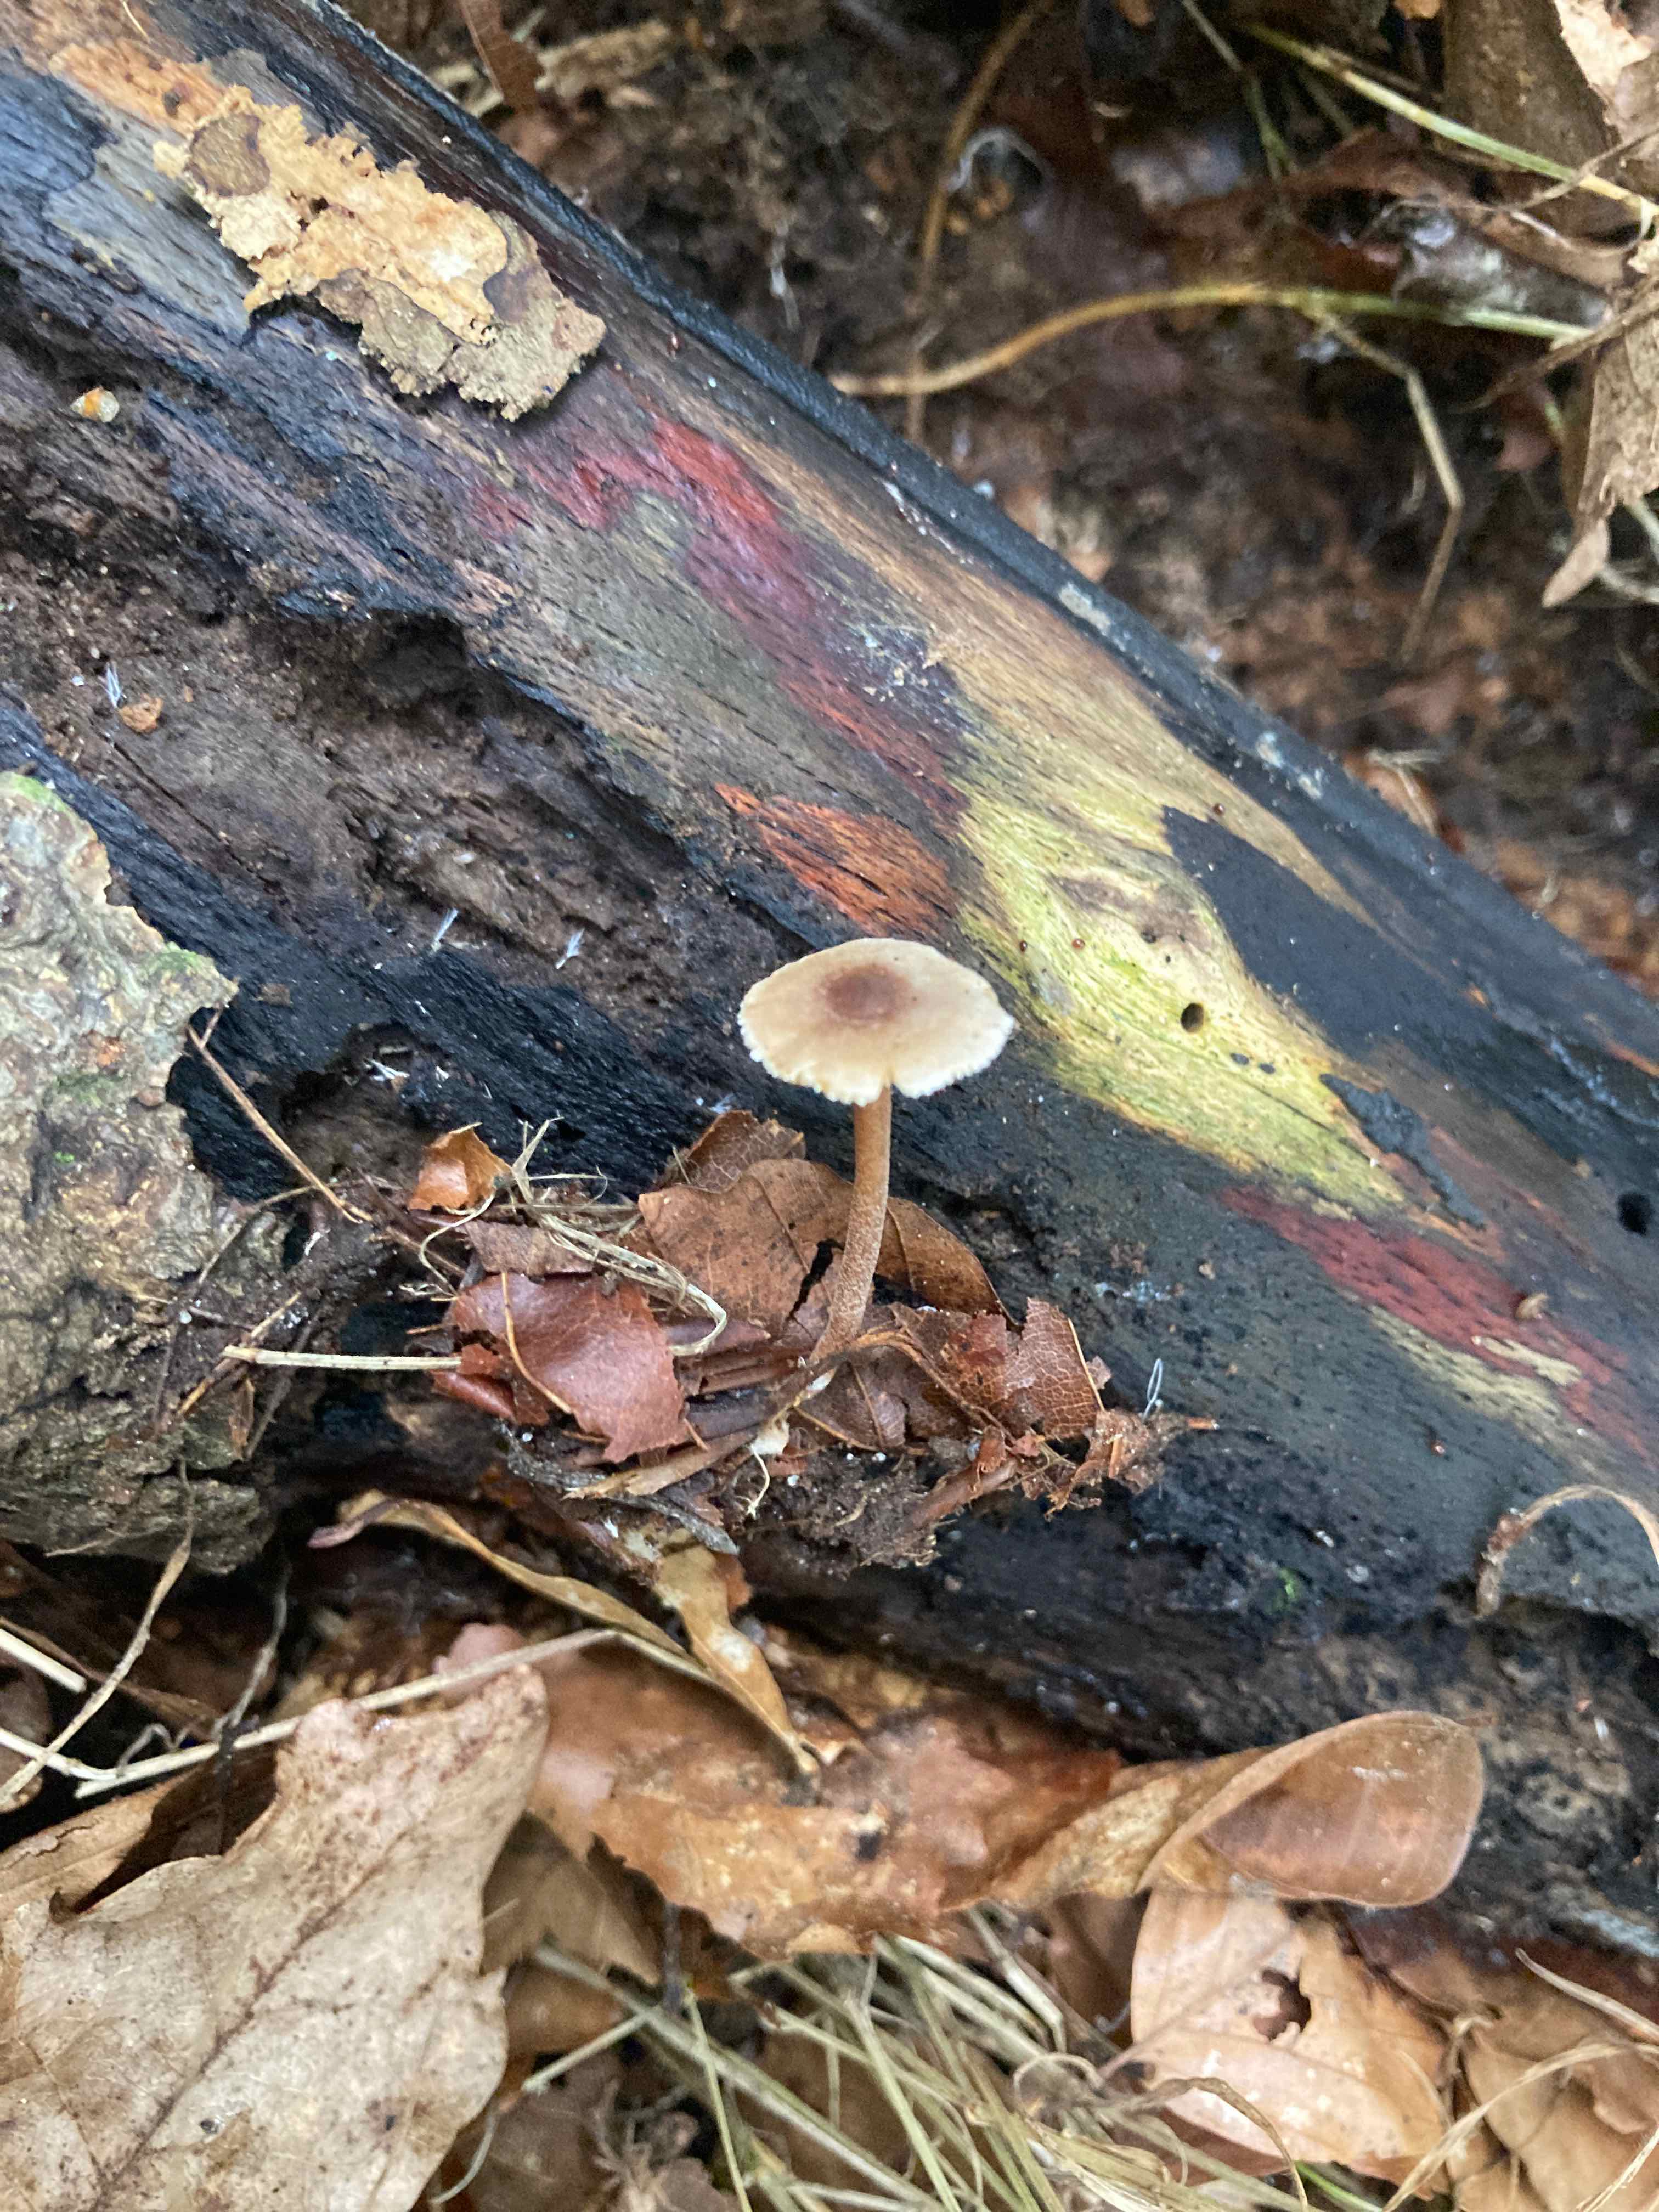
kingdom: Fungi
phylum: Basidiomycota
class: Agaricomycetes
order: Agaricales
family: Inocybaceae
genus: Inocybe
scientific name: Inocybe petiginosa
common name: liden trævlhat
